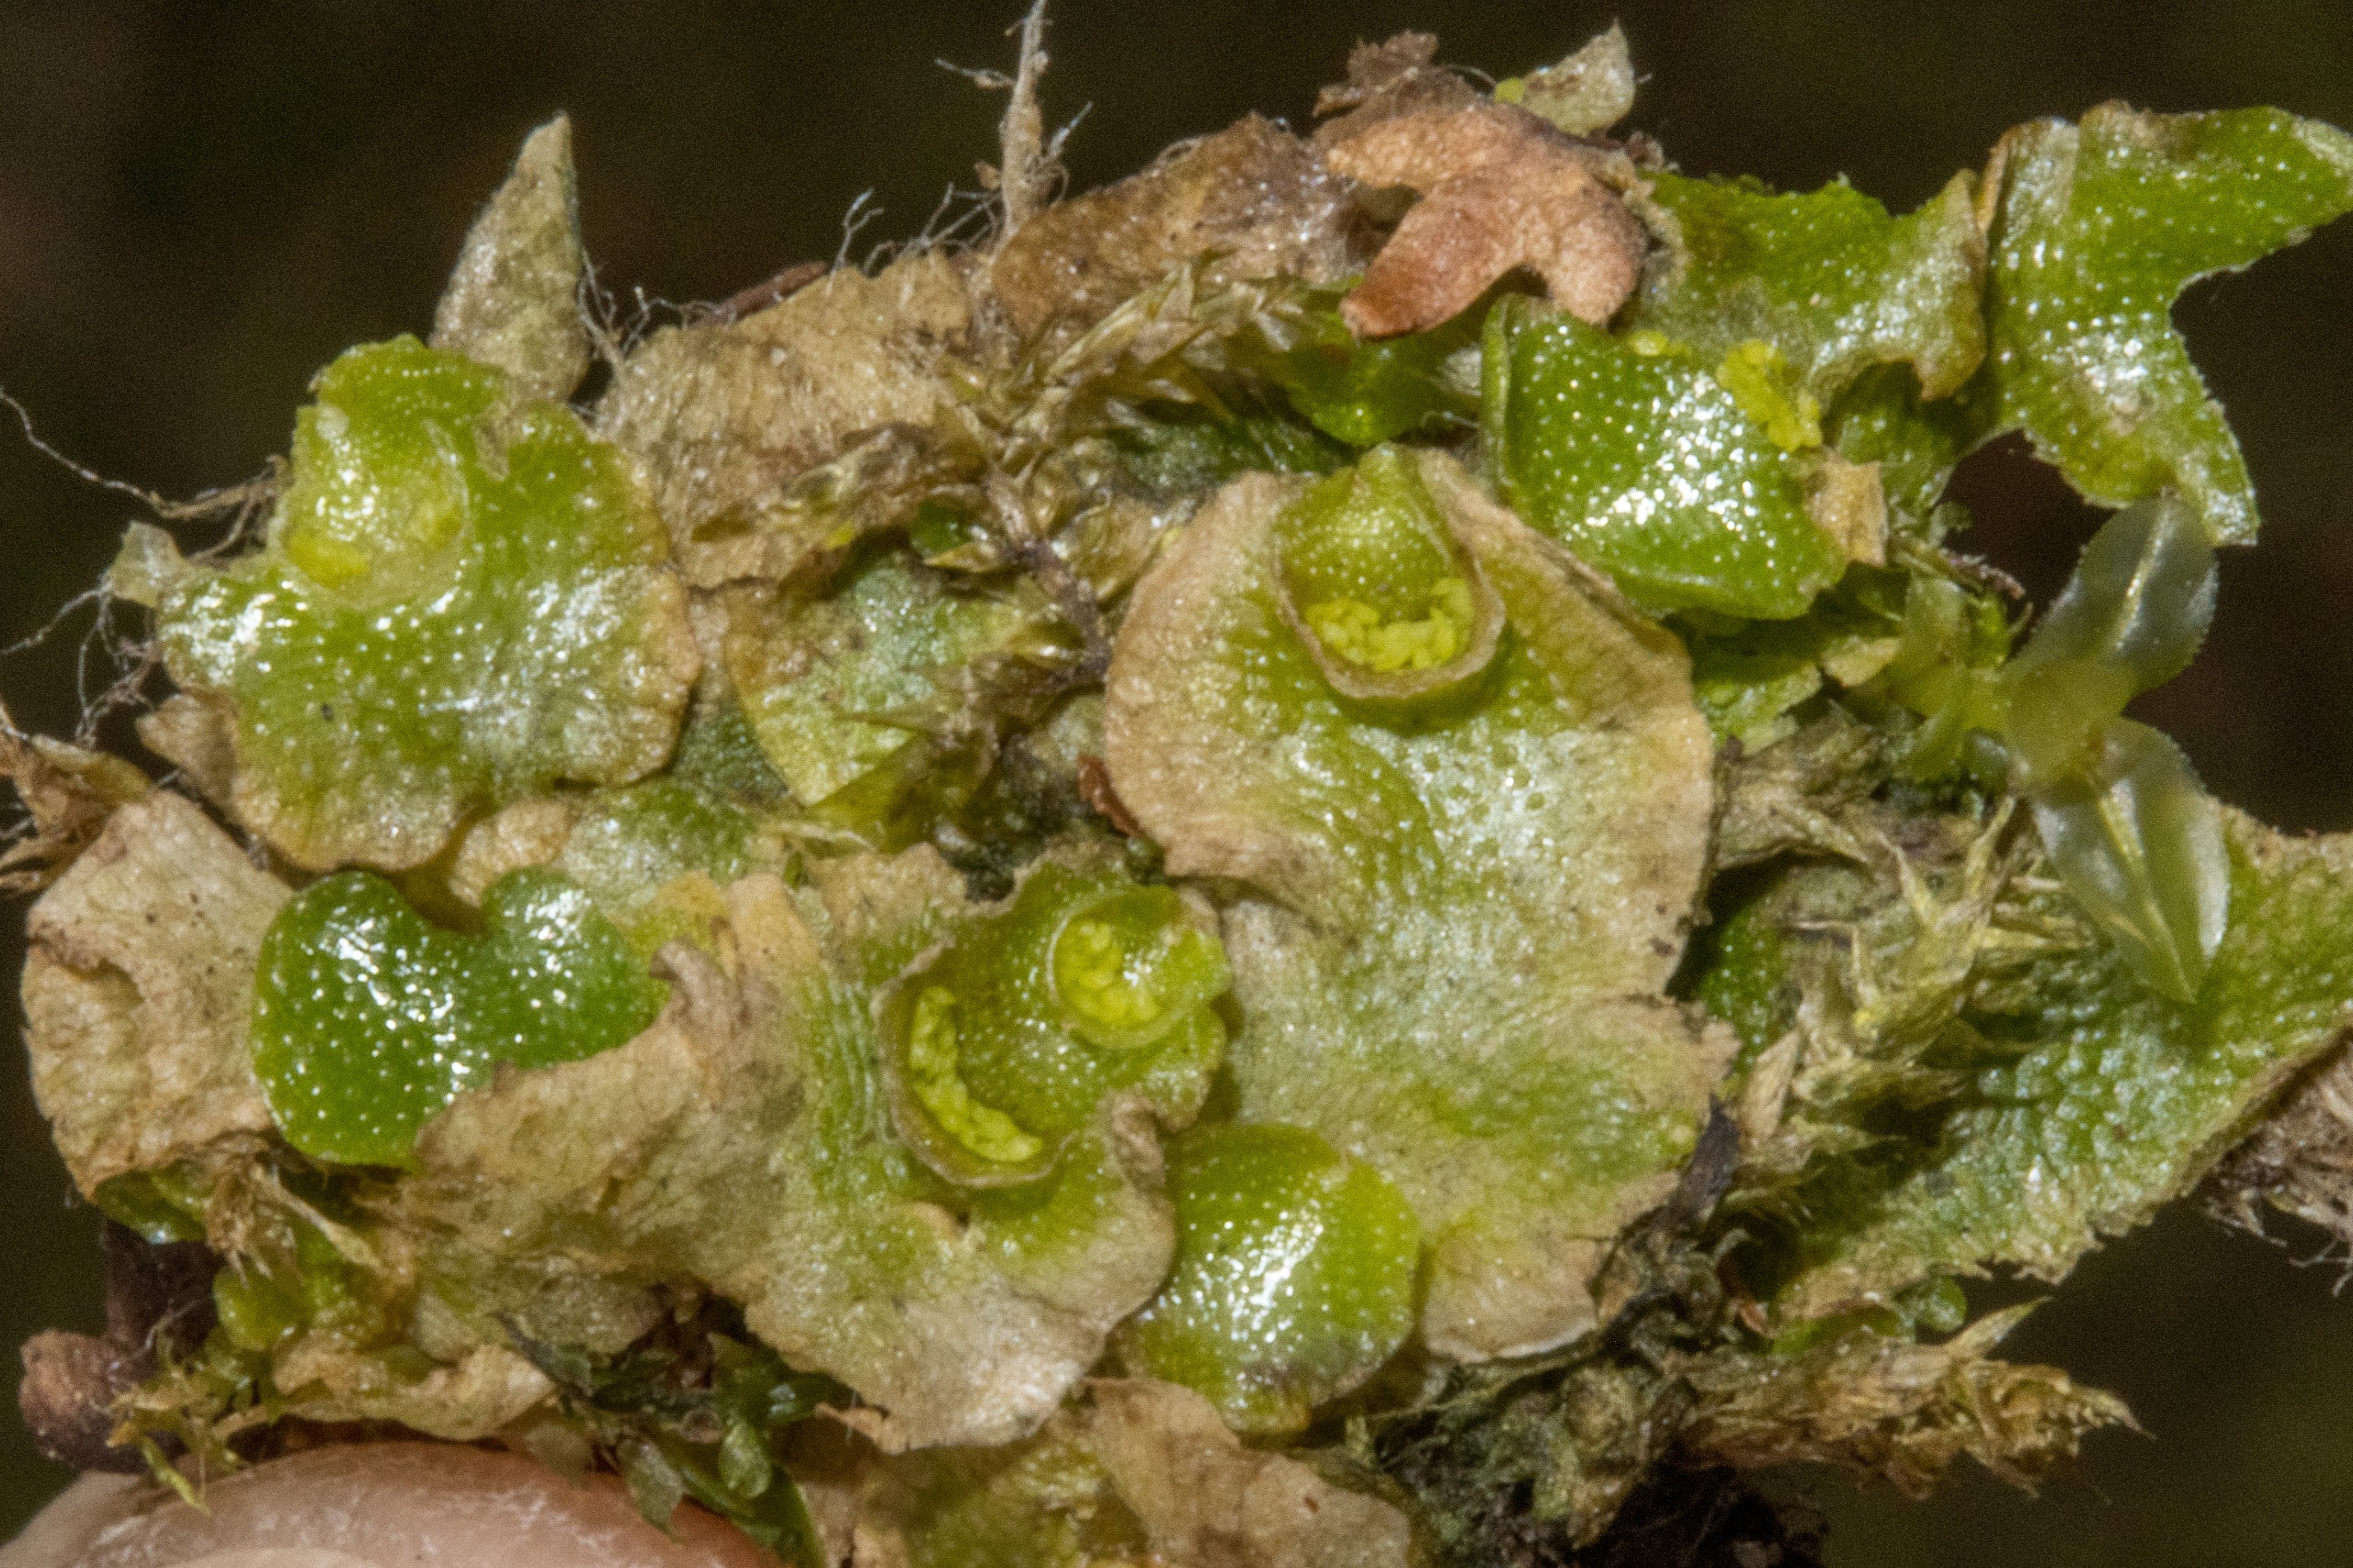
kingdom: Plantae
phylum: Marchantiophyta
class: Marchantiopsida
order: Lunulariales
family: Lunulariaceae
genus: Lunularia
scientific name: Lunularia cruciata
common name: Almindelig månemos
